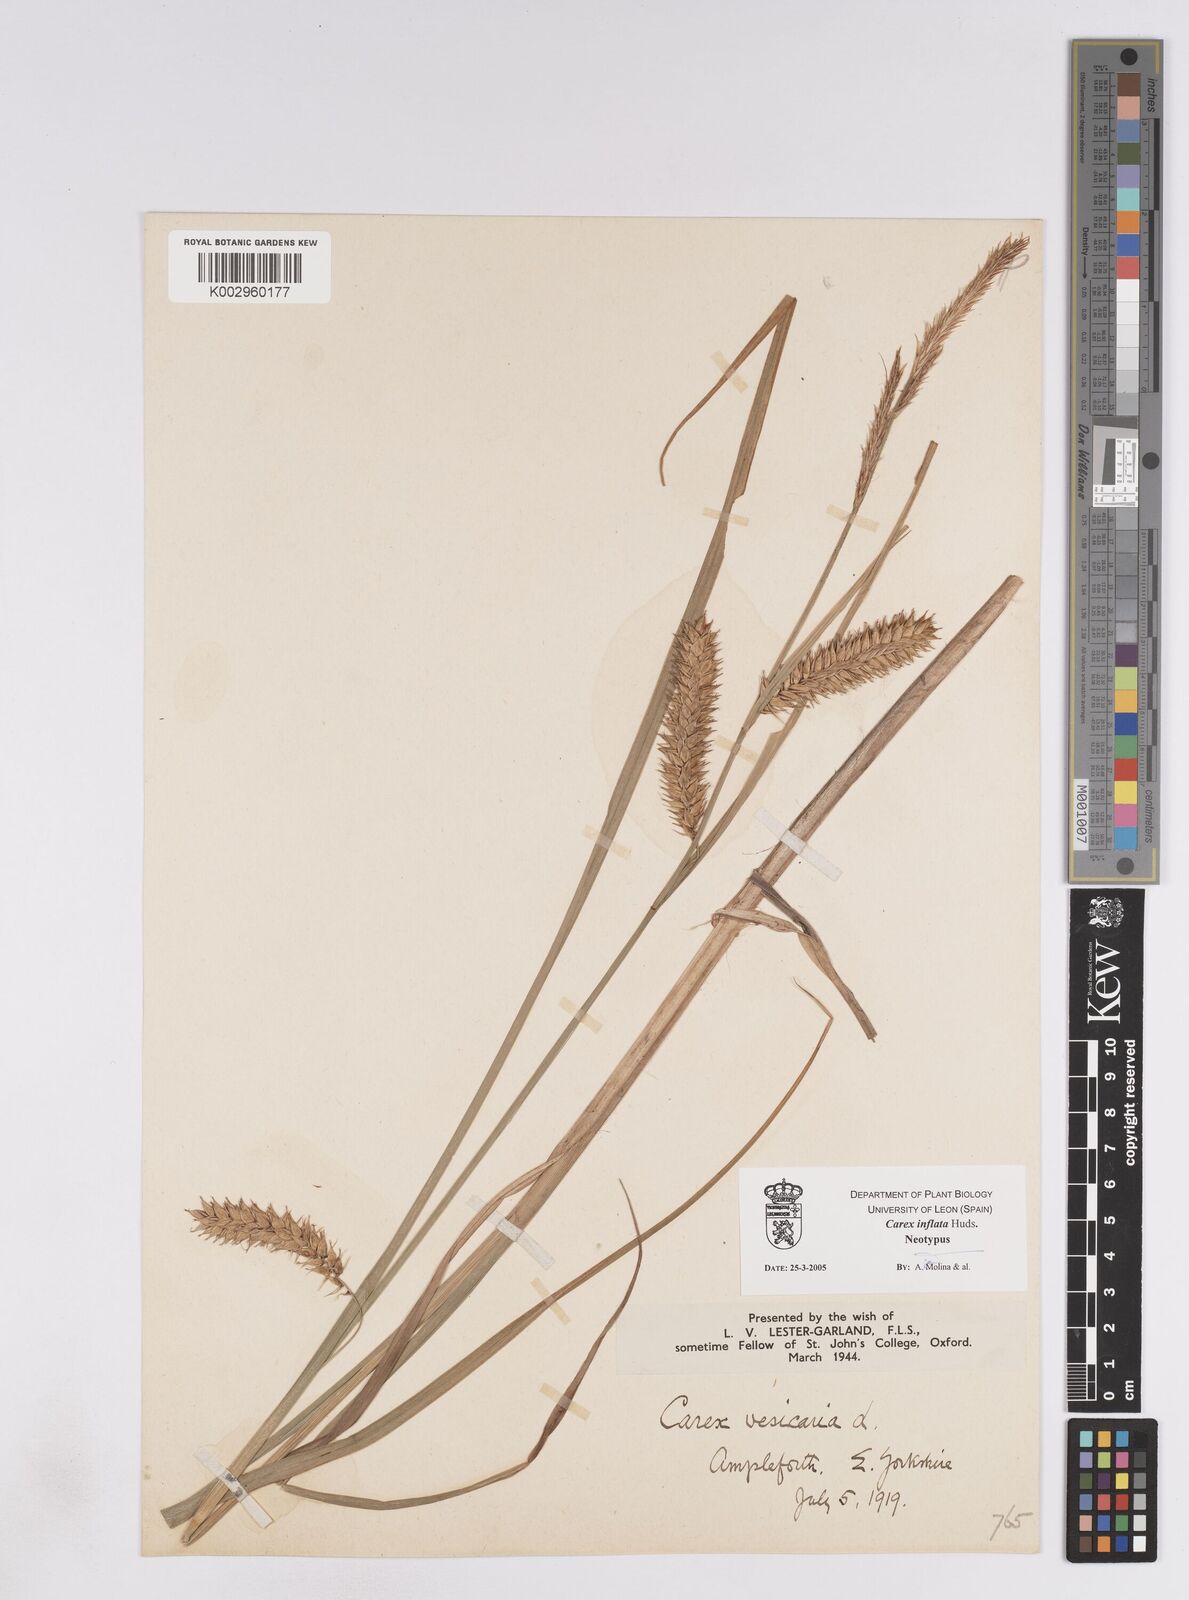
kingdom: Plantae
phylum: Tracheophyta
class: Liliopsida
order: Poales
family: Cyperaceae
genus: Carex
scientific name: Carex vesicaria
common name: Bladder-sedge
